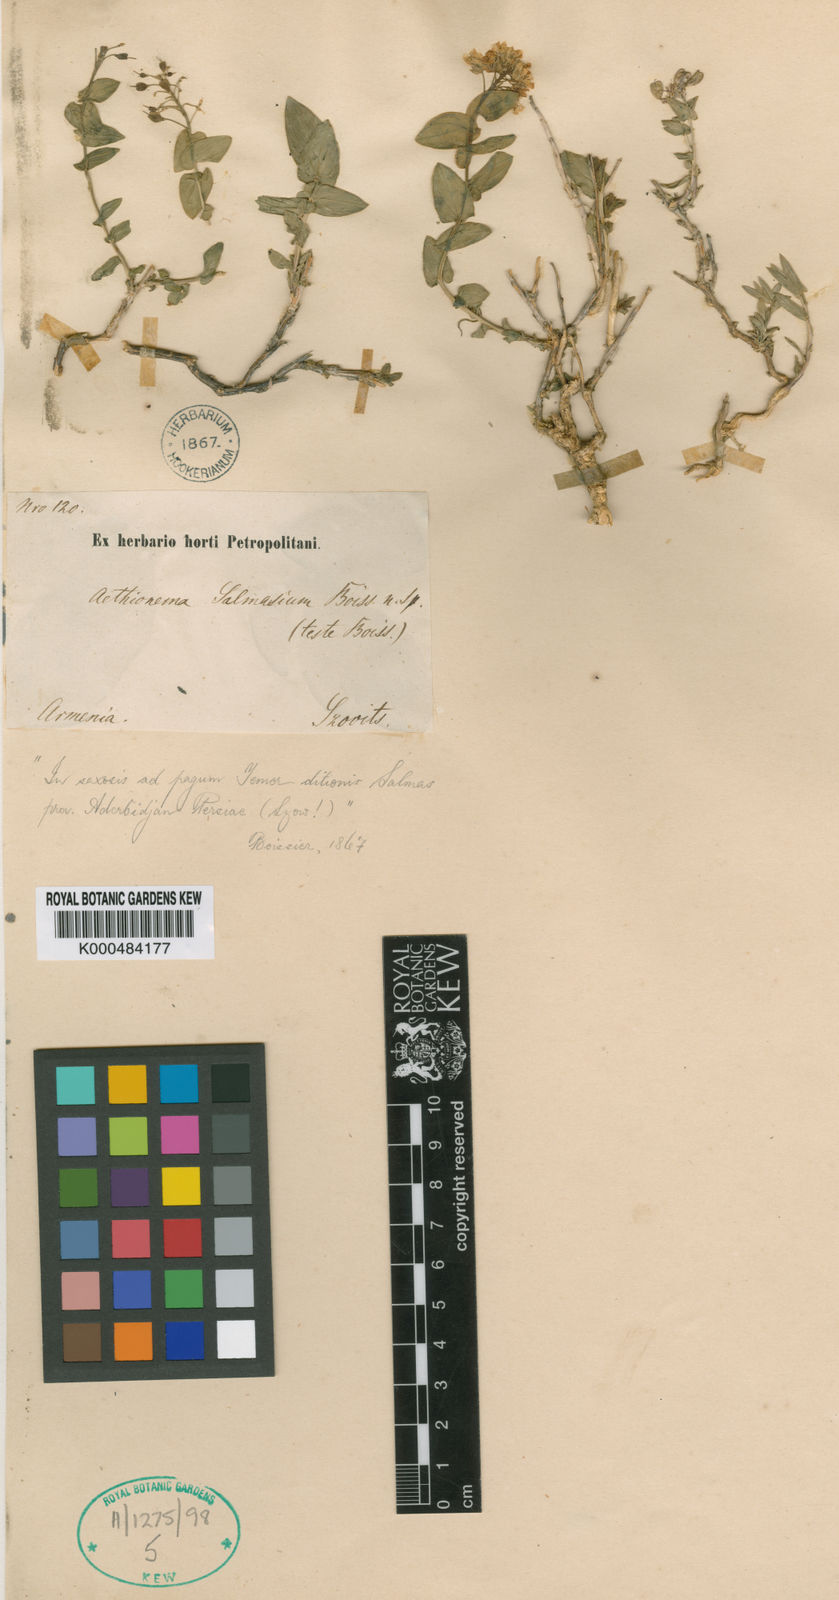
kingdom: Plantae
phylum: Tracheophyta
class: Magnoliopsida
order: Brassicales
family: Brassicaceae
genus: Noccaea
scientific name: Noccaea trinervia
